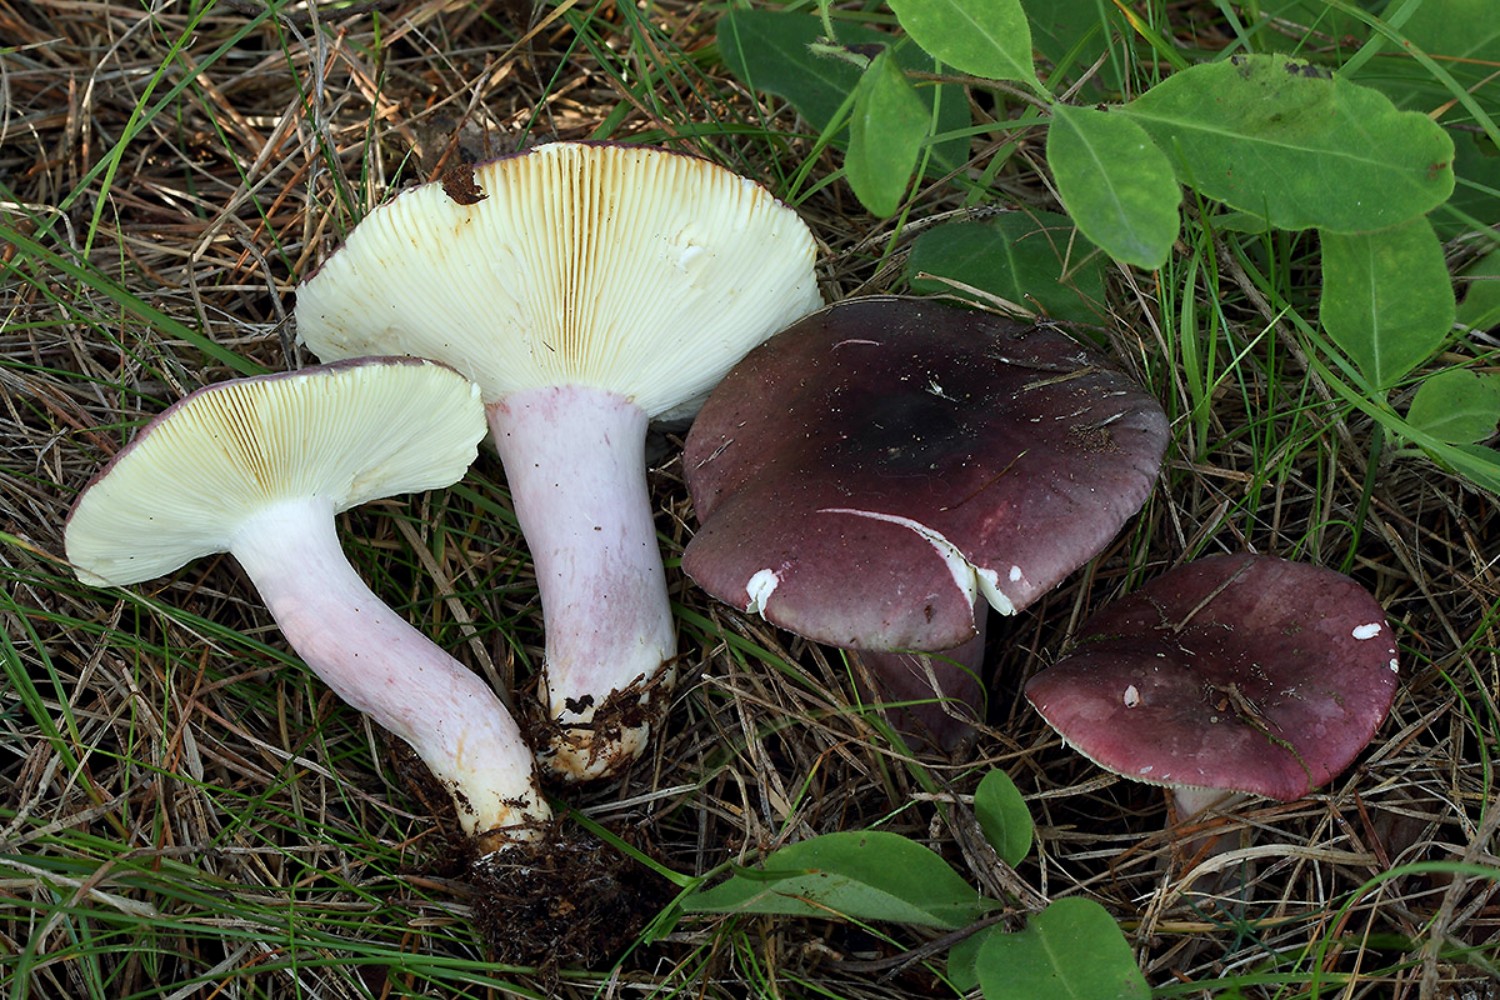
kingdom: Fungi
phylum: Basidiomycota
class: Agaricomycetes
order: Russulales
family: Russulaceae
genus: Russula
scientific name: Russula sardonia
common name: citronbladet skørhat
